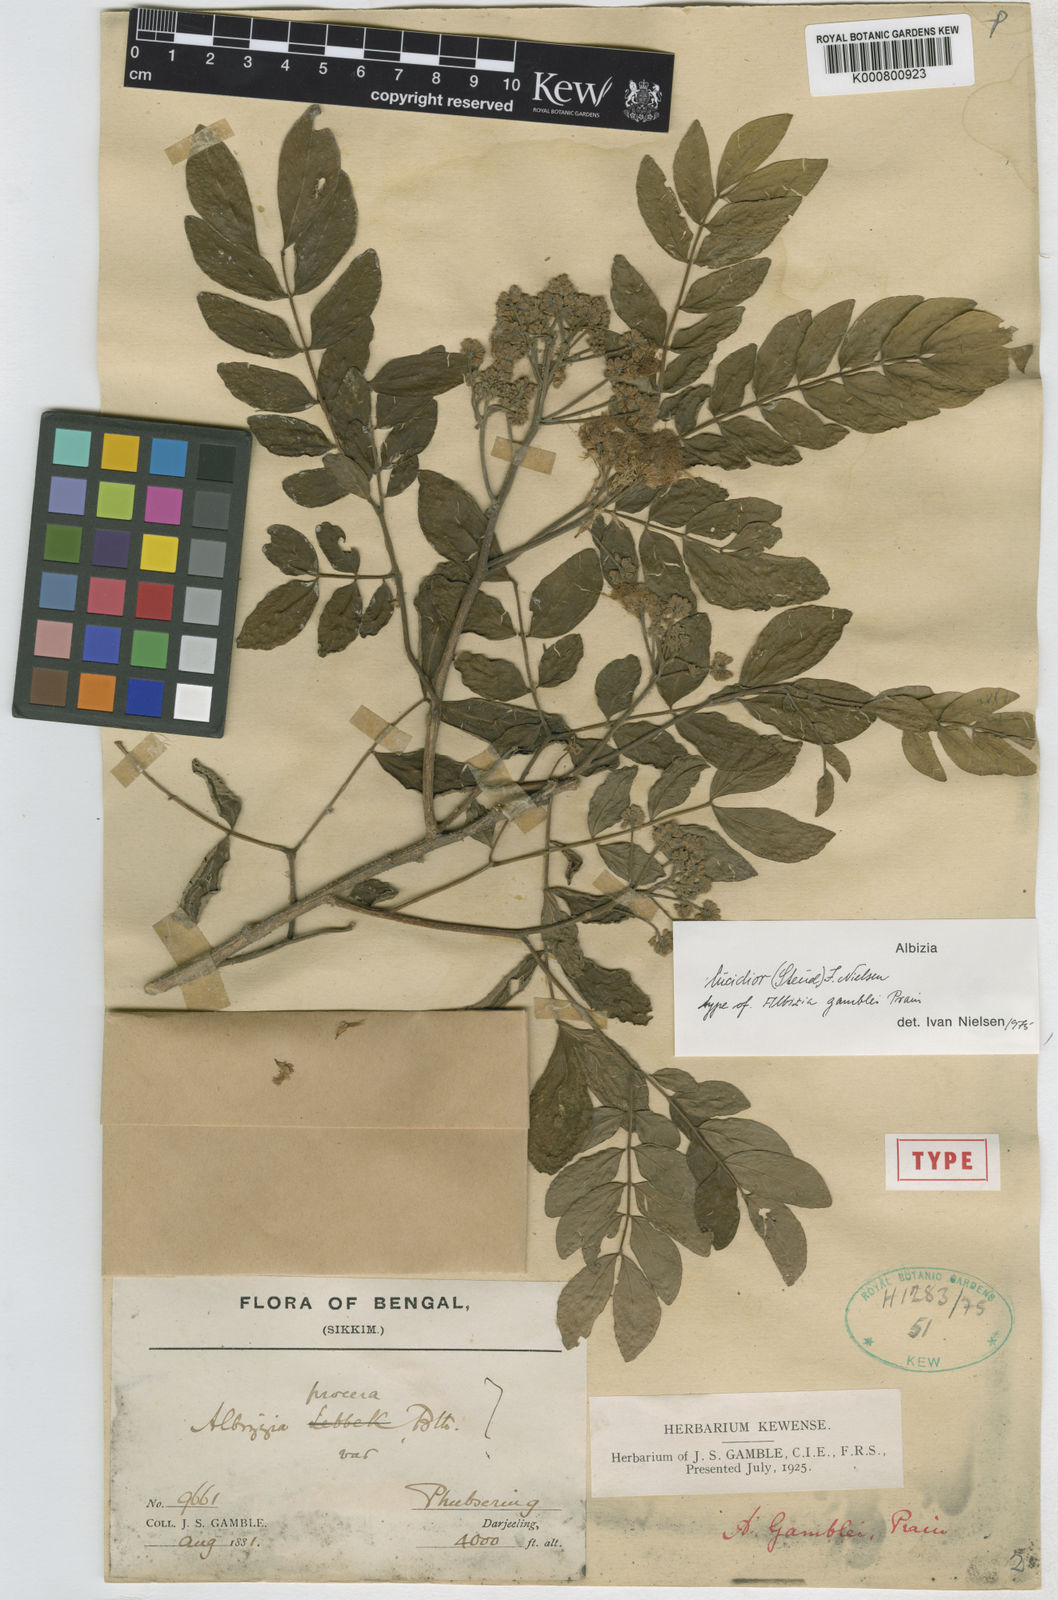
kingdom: Plantae
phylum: Tracheophyta
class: Magnoliopsida
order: Fabales
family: Fabaceae
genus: Albizia
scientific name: Albizia lucidior
